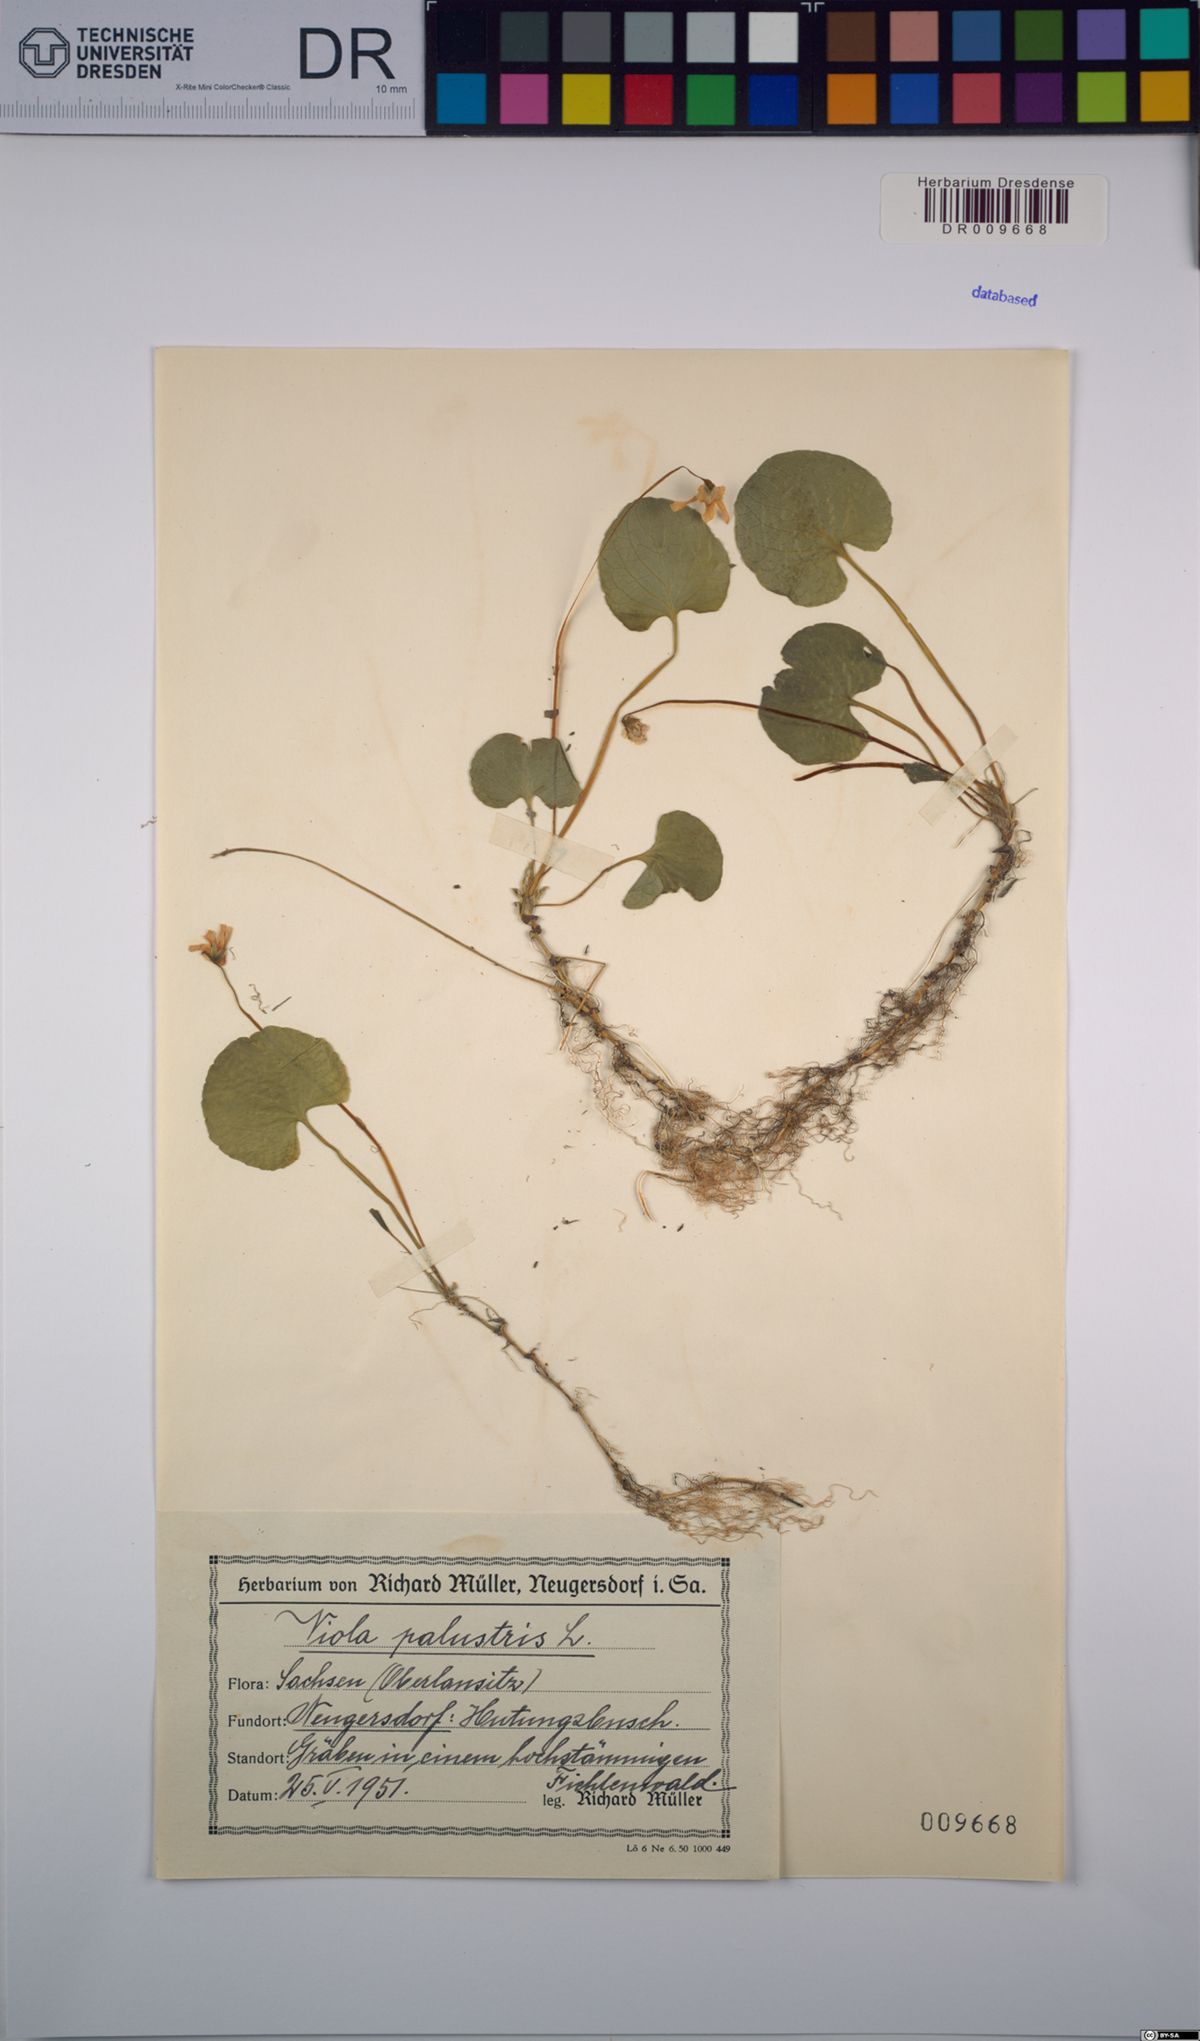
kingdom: Plantae
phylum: Tracheophyta
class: Magnoliopsida
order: Malpighiales
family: Violaceae
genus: Viola
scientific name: Viola palustris
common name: Marsh violet
